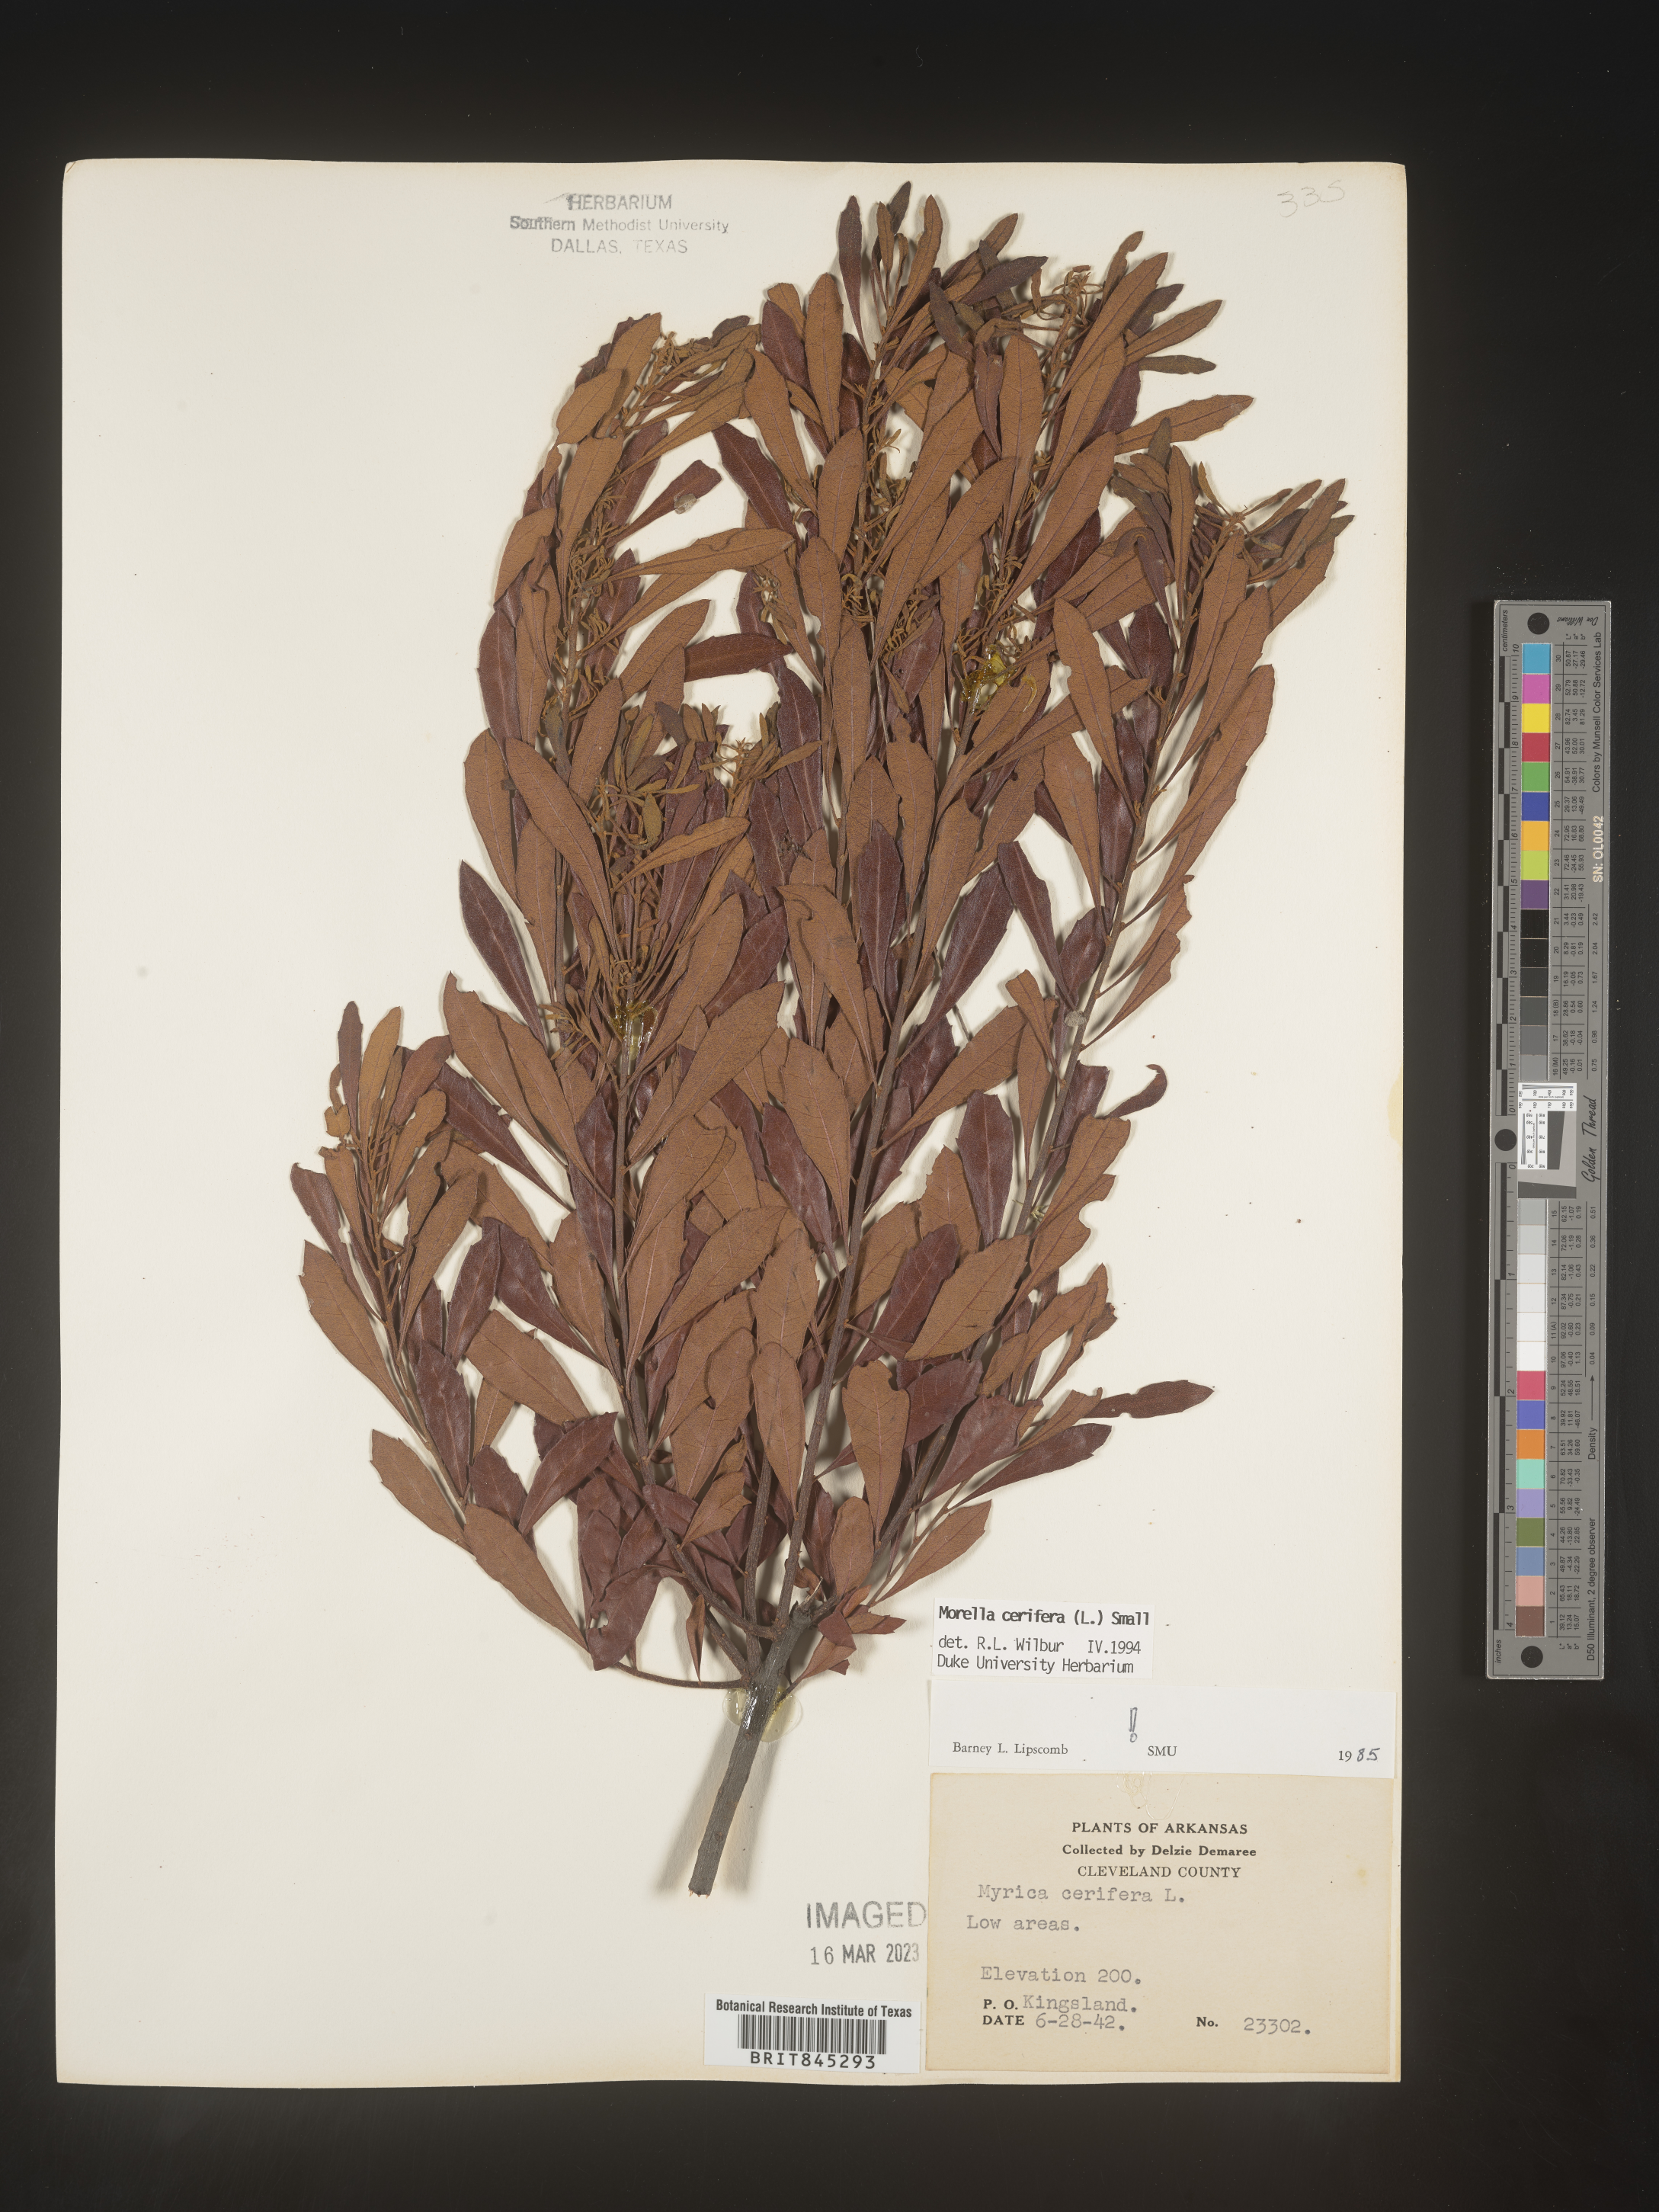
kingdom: Plantae
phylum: Tracheophyta
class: Magnoliopsida
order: Fagales
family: Myricaceae
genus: Morella
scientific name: Morella cerifera
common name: Wax myrtle
